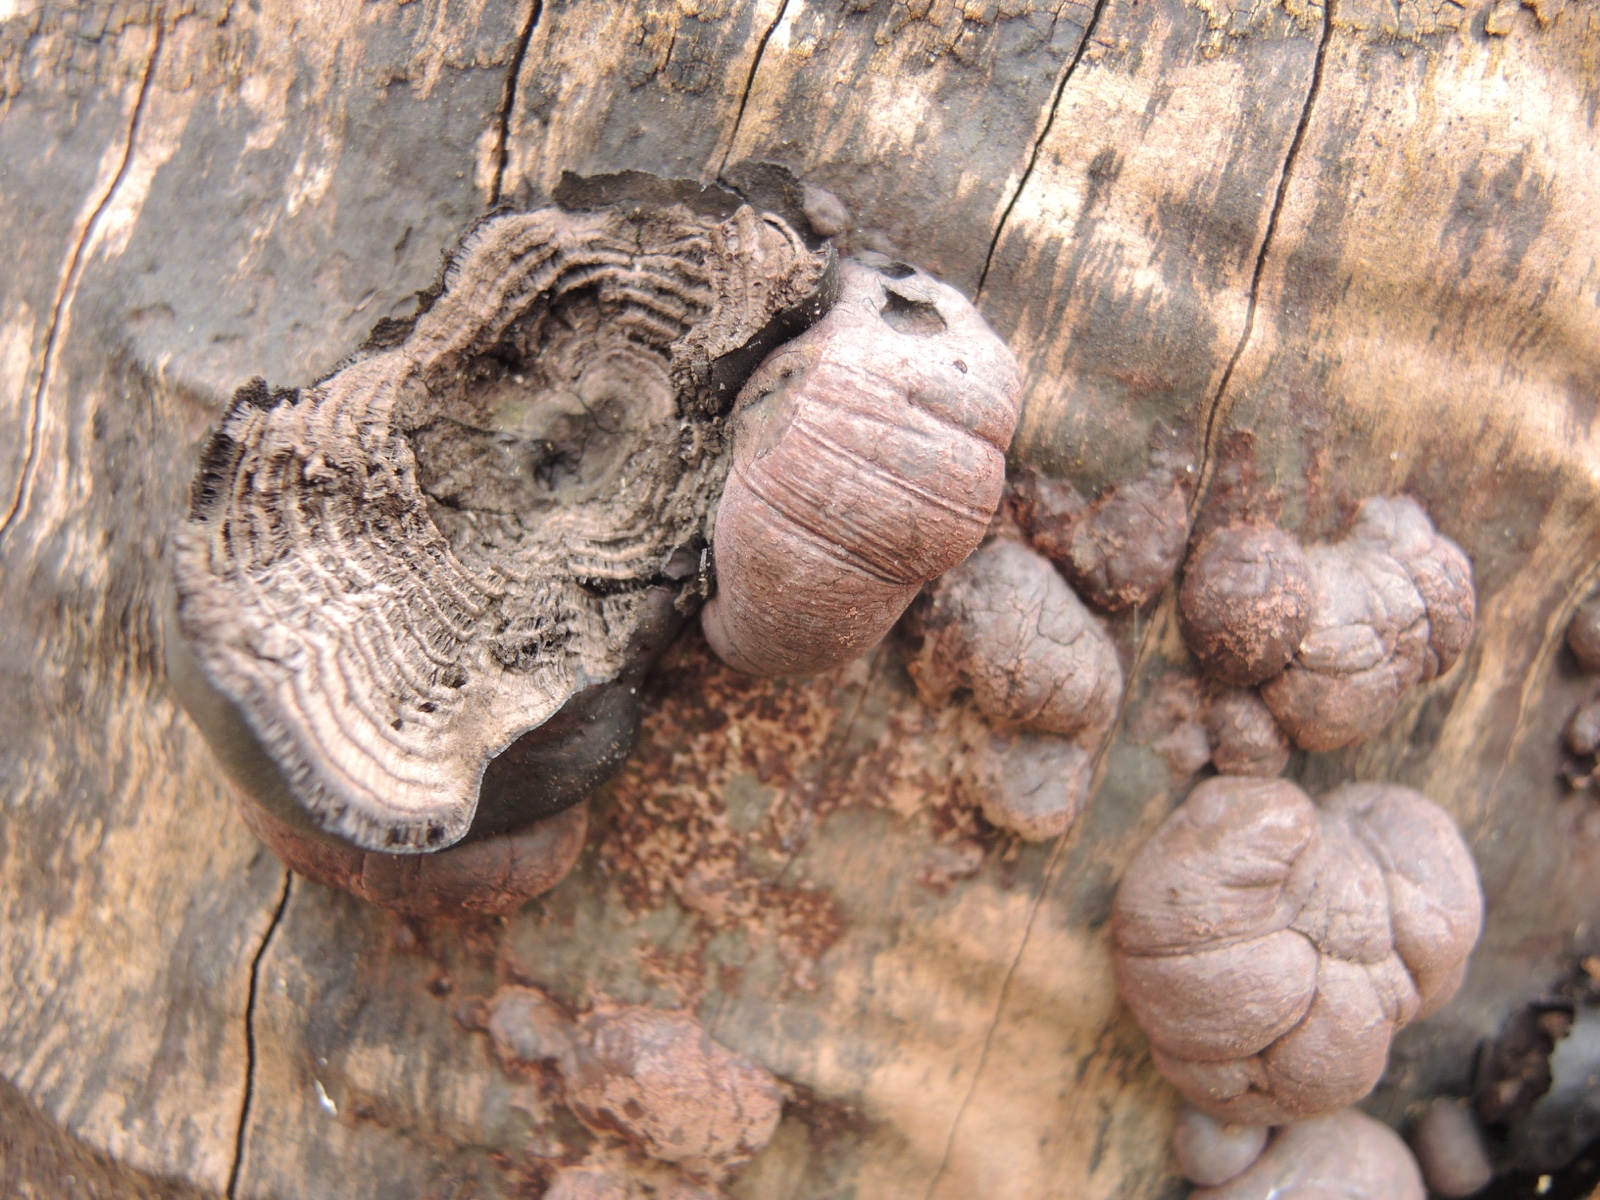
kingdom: Fungi
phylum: Ascomycota
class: Sordariomycetes
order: Xylariales
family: Hypoxylaceae
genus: Daldinia
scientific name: Daldinia concentrica
